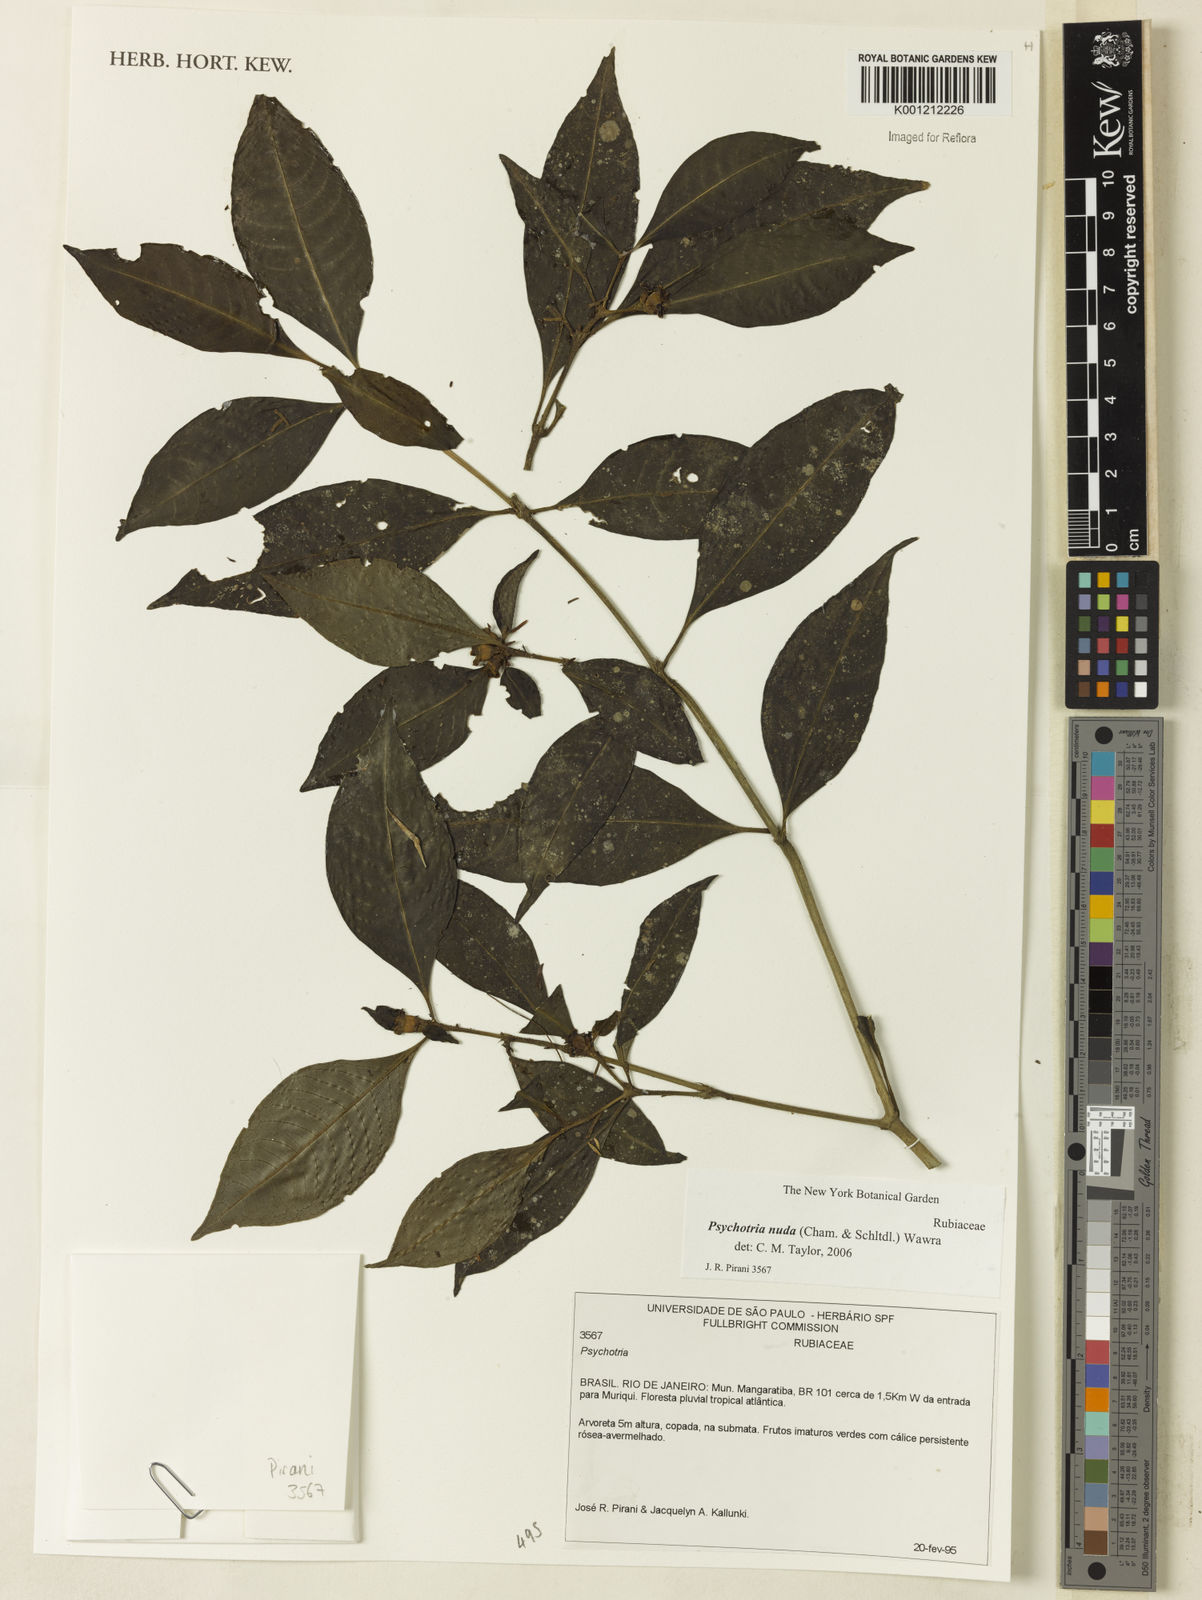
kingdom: Plantae
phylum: Tracheophyta
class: Magnoliopsida
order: Gentianales
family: Rubiaceae
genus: Psychotria
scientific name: Psychotria nuda
